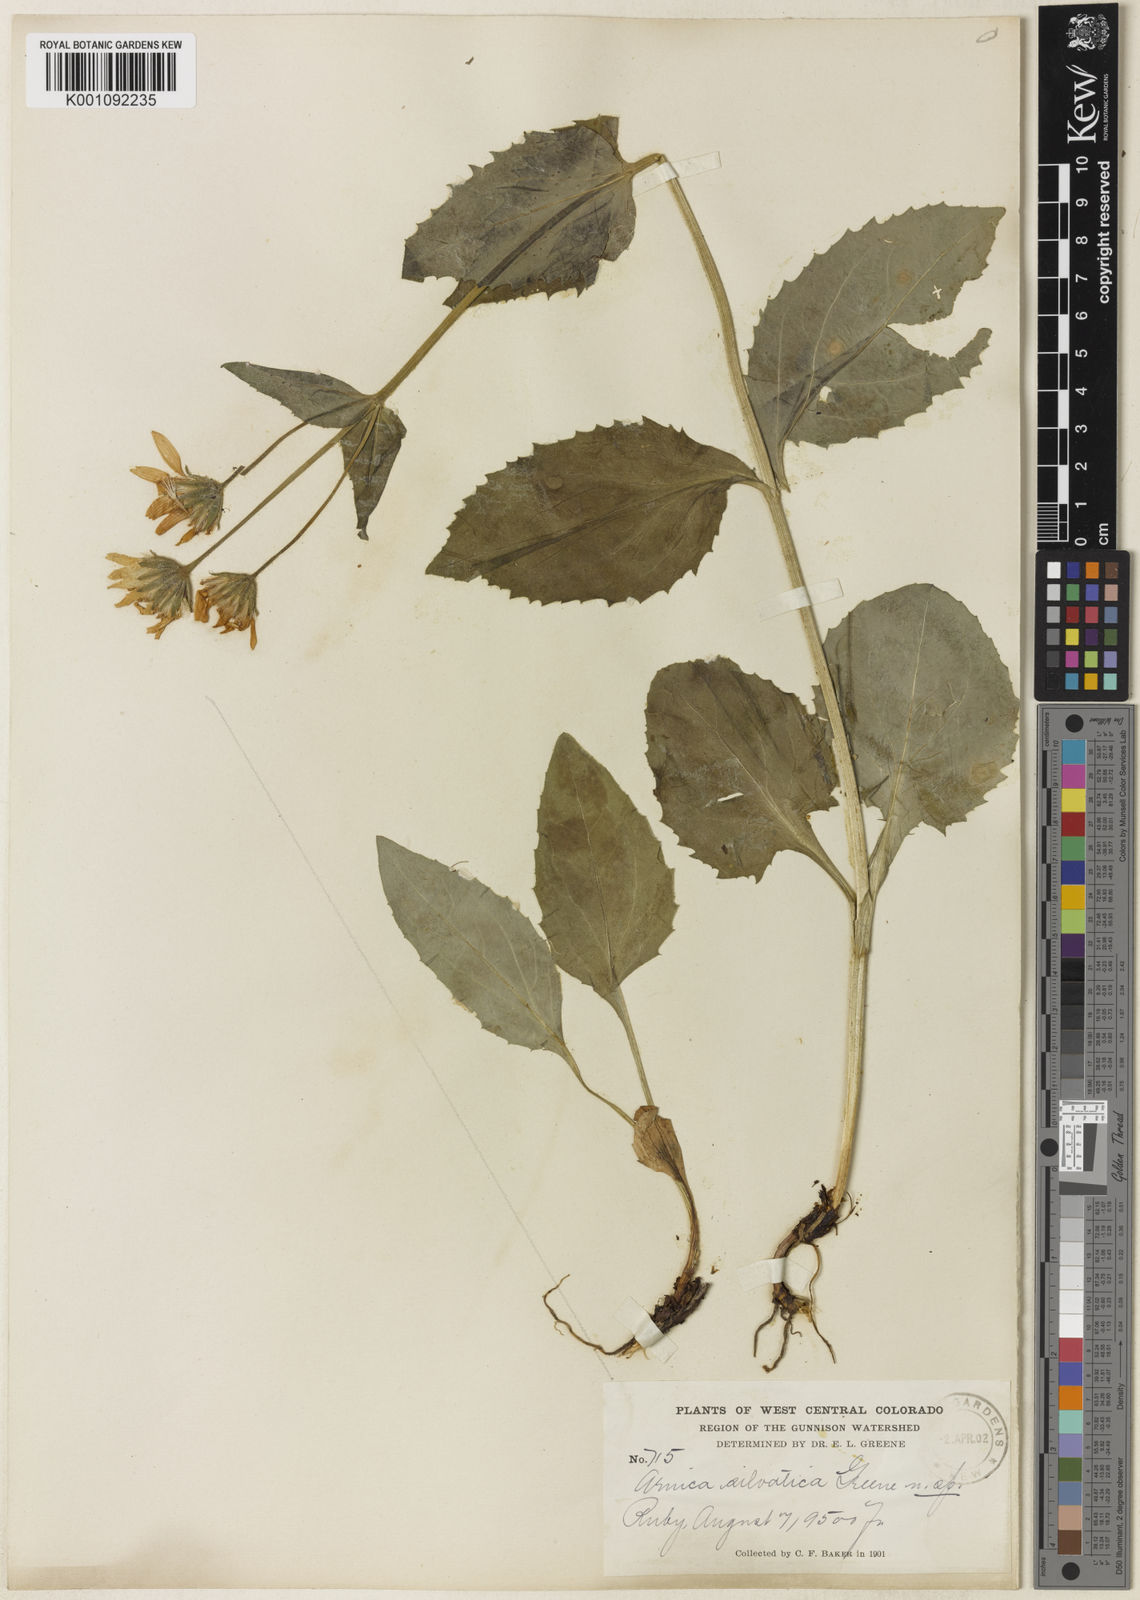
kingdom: Plantae
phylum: Tracheophyta
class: Magnoliopsida
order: Asterales
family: Asteraceae
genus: Arnica
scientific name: Arnica mollis
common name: Hairy arnica
